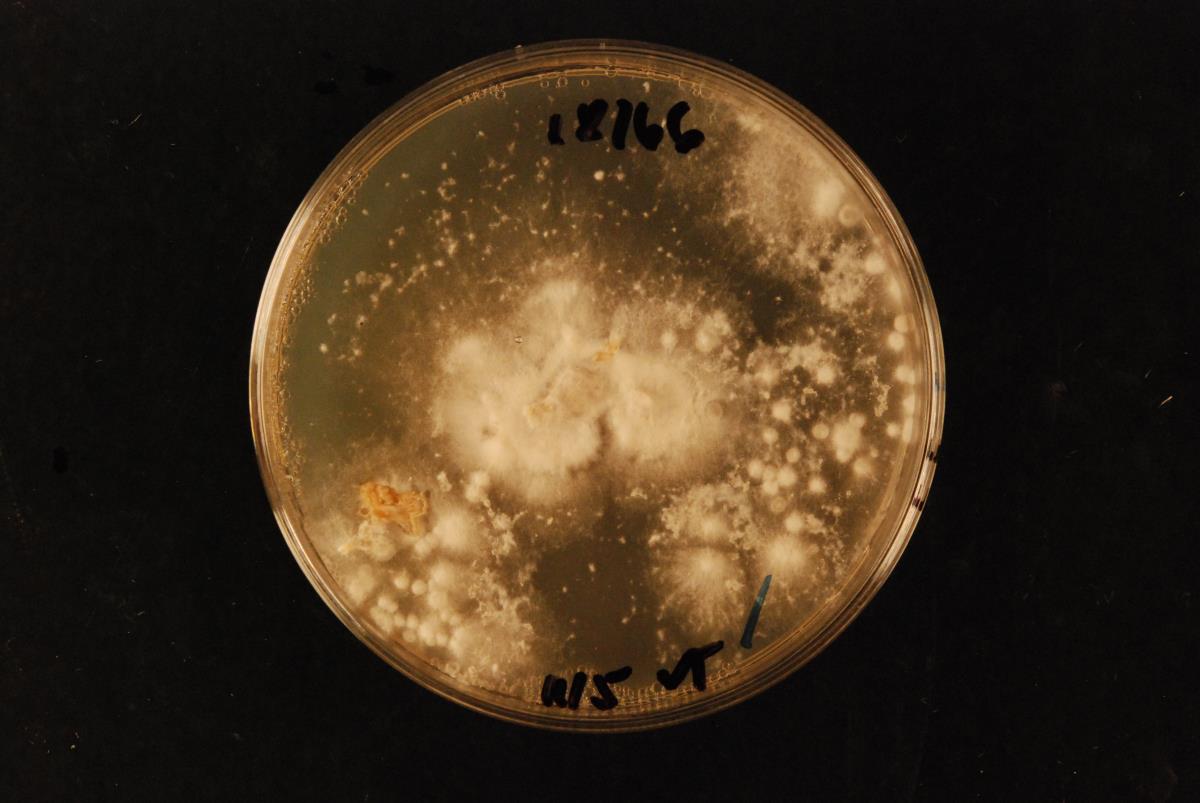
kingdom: Fungi
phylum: Basidiomycota
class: Agaricomycetes
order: Agaricales
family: Pleurotaceae
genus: Pleurotus
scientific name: Pleurotus pulmonarius
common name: Pale oyster
